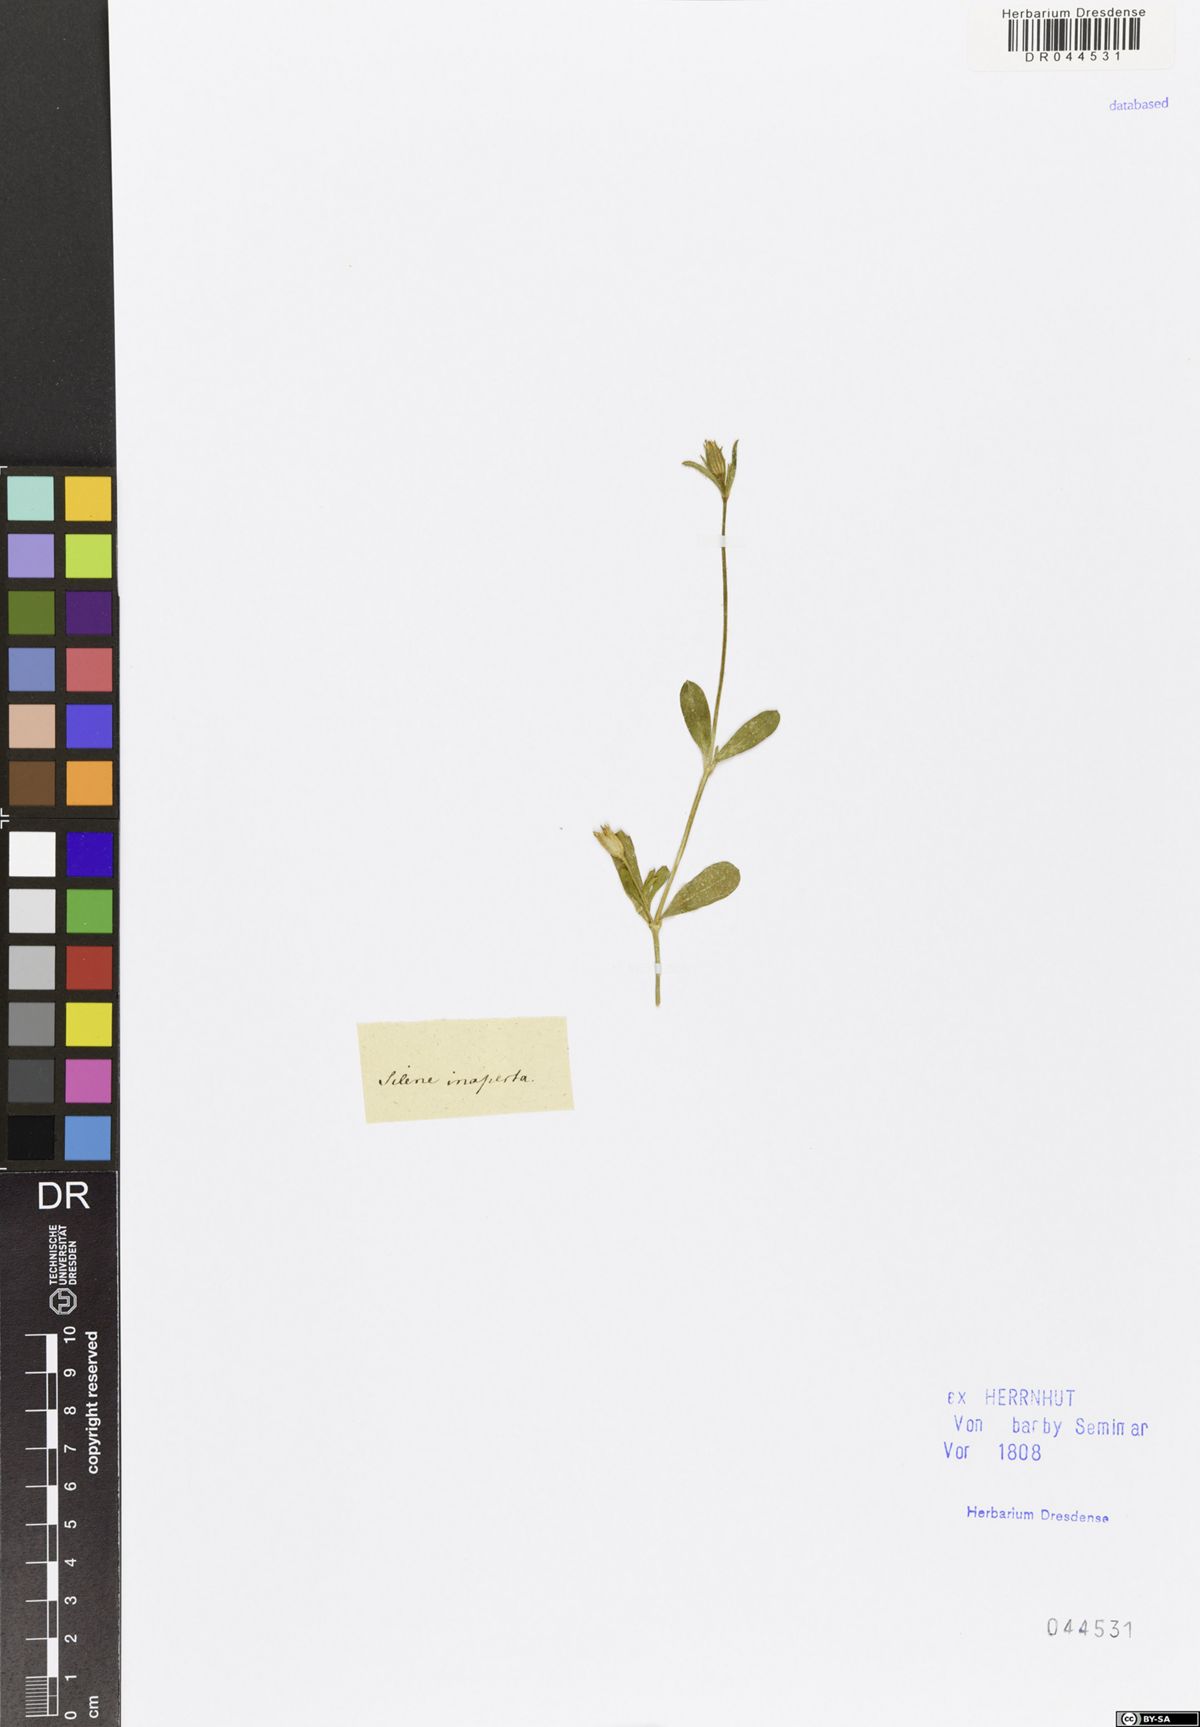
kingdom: Plantae
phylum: Tracheophyta
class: Magnoliopsida
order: Caryophyllales
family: Caryophyllaceae
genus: Silene
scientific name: Silene inaperta
